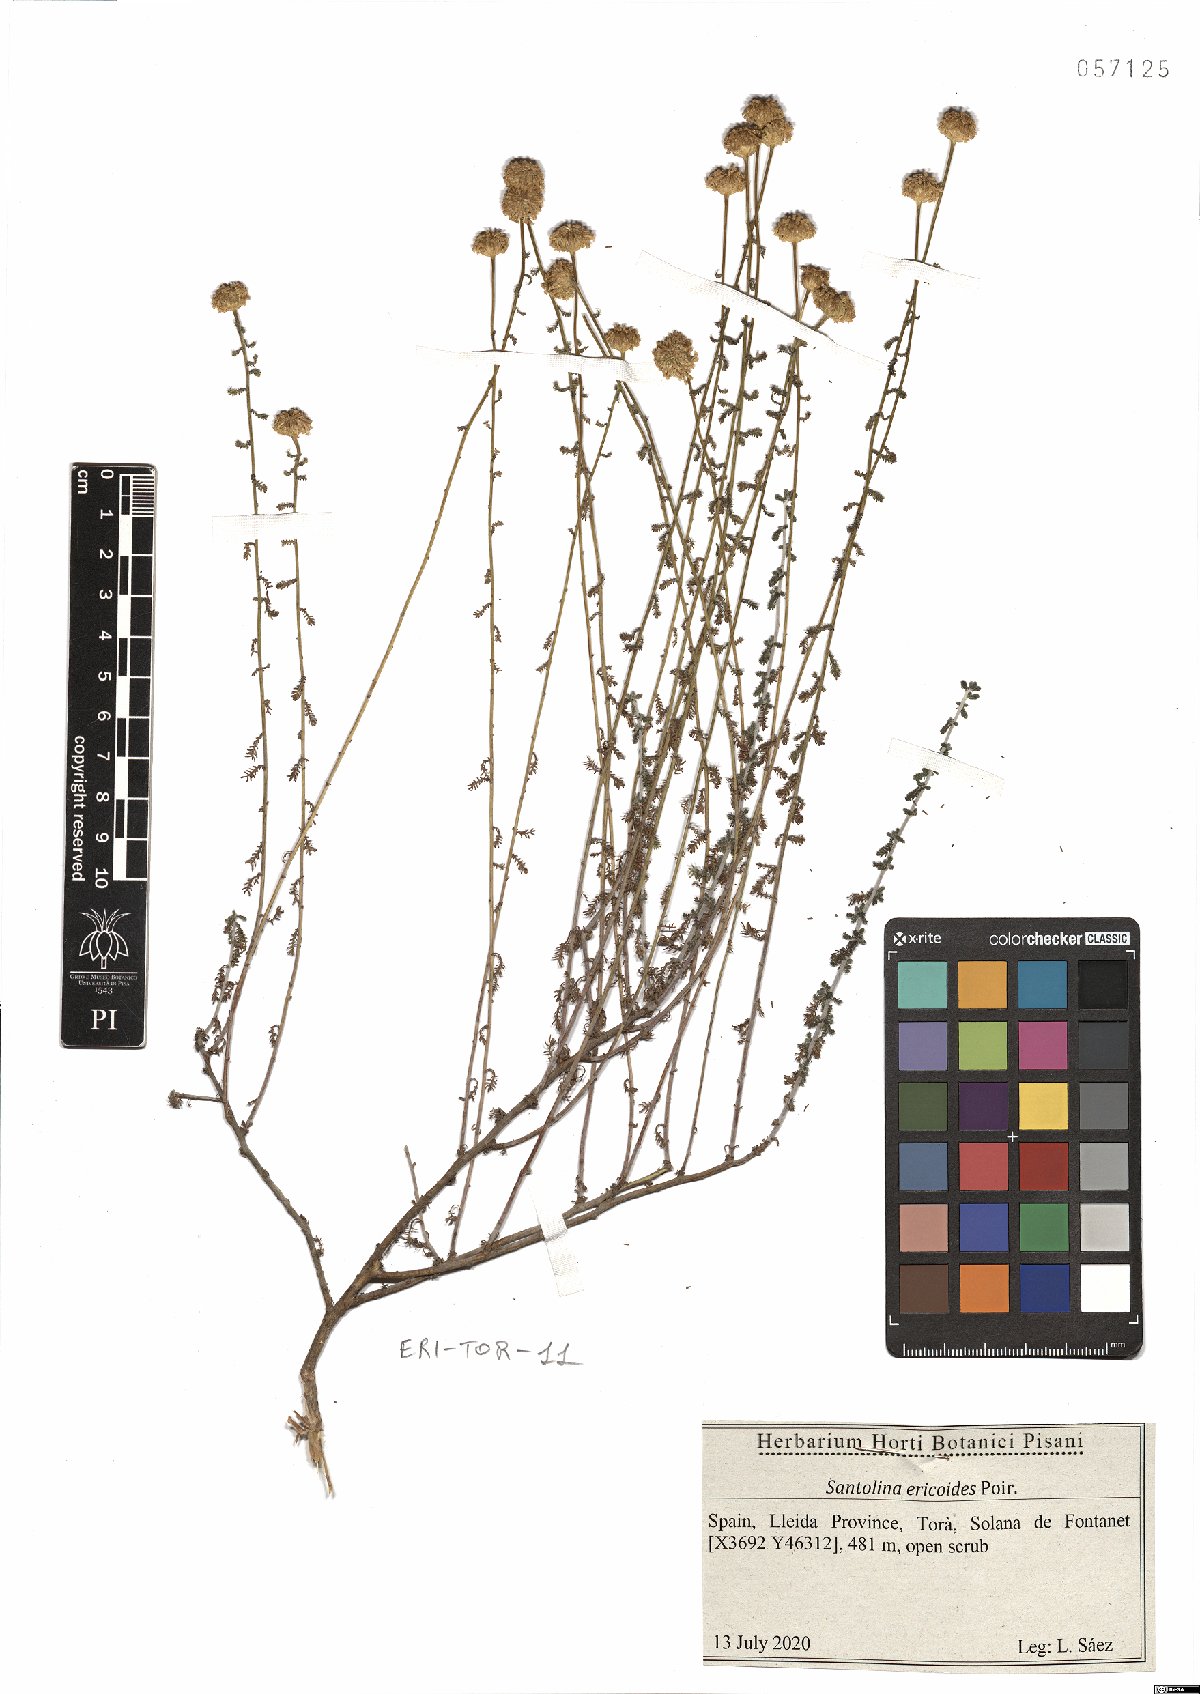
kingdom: Plantae
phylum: Tracheophyta
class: Magnoliopsida
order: Asterales
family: Asteraceae
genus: Santolina
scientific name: Santolina ericoides
